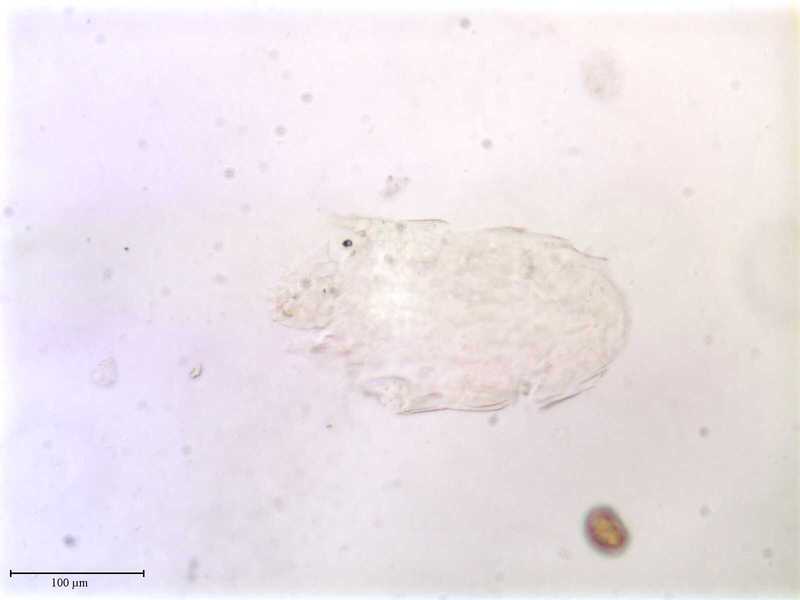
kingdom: Animalia
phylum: Arthropoda
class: Arachnida
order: Trombidiformes
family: Tarsonemidae
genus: Pseudotarsonemoides
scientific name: Pseudotarsonemoides eccoptogasteris
